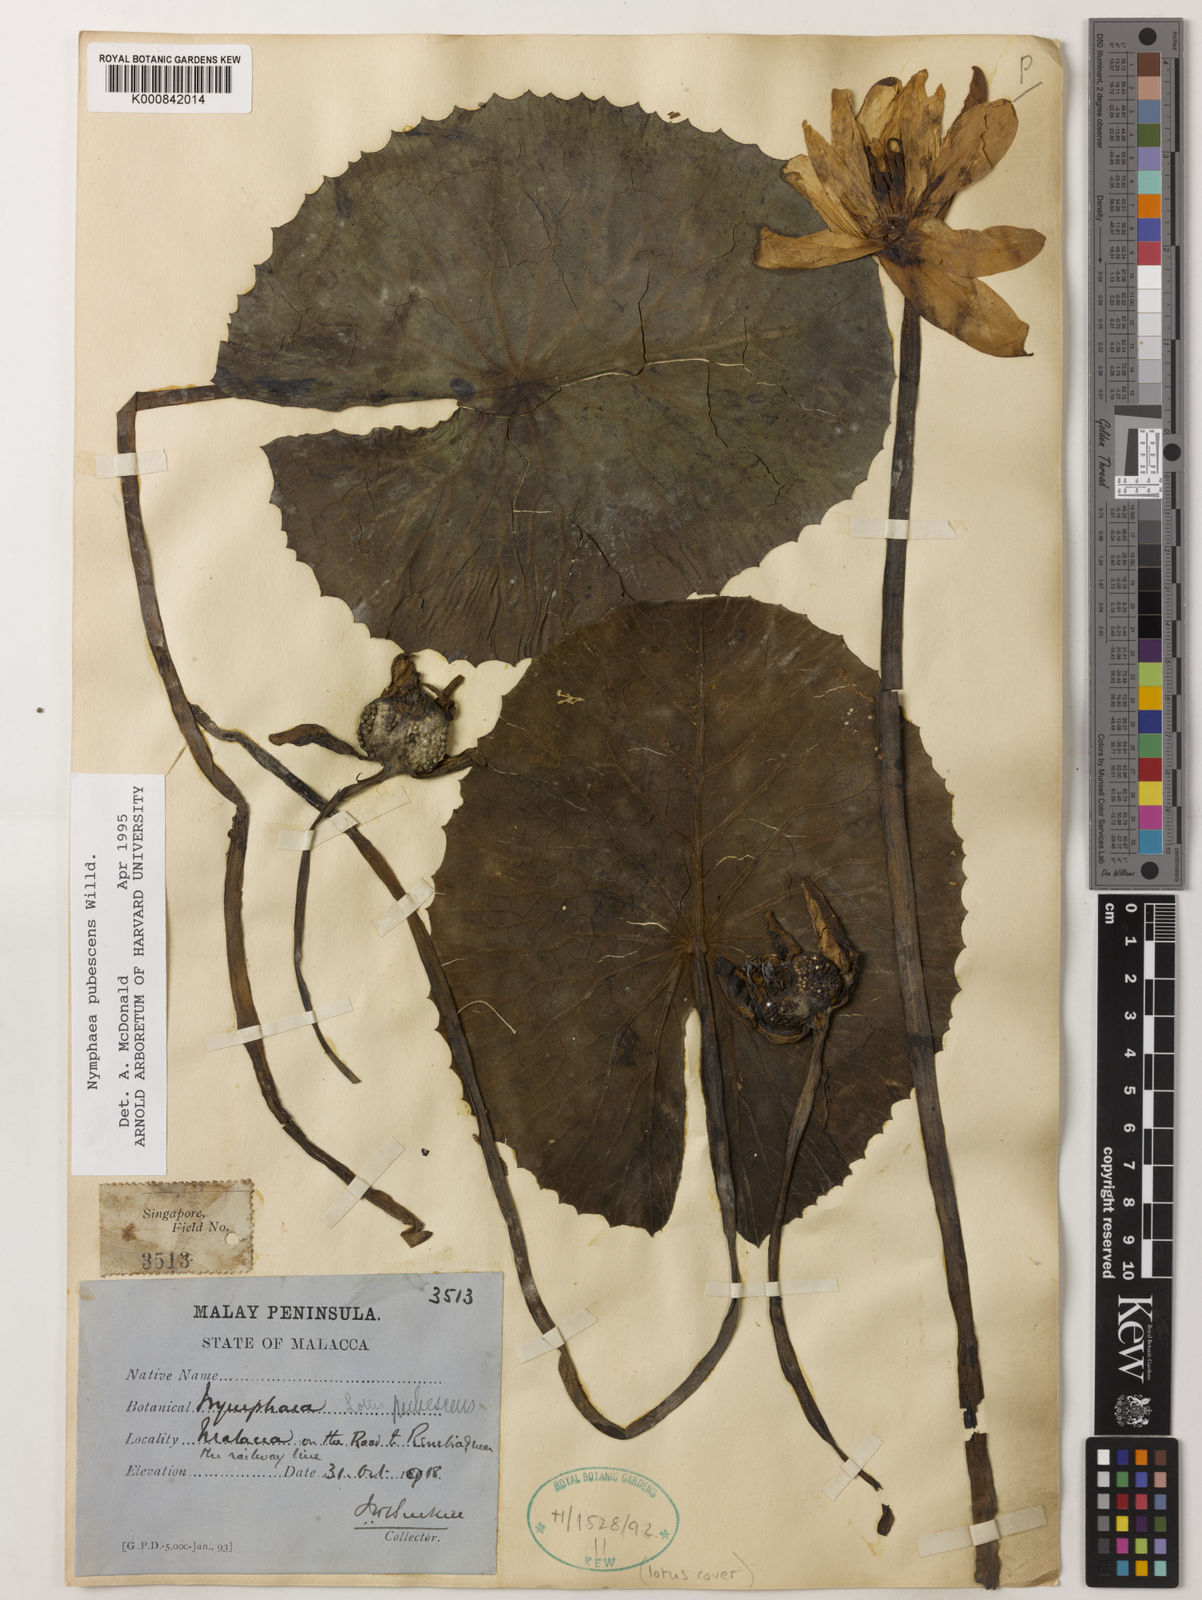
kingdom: Plantae
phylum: Tracheophyta
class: Magnoliopsida
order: Nymphaeales
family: Nymphaeaceae
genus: Nymphaea
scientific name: Nymphaea pubescens
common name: Hairy water lily
